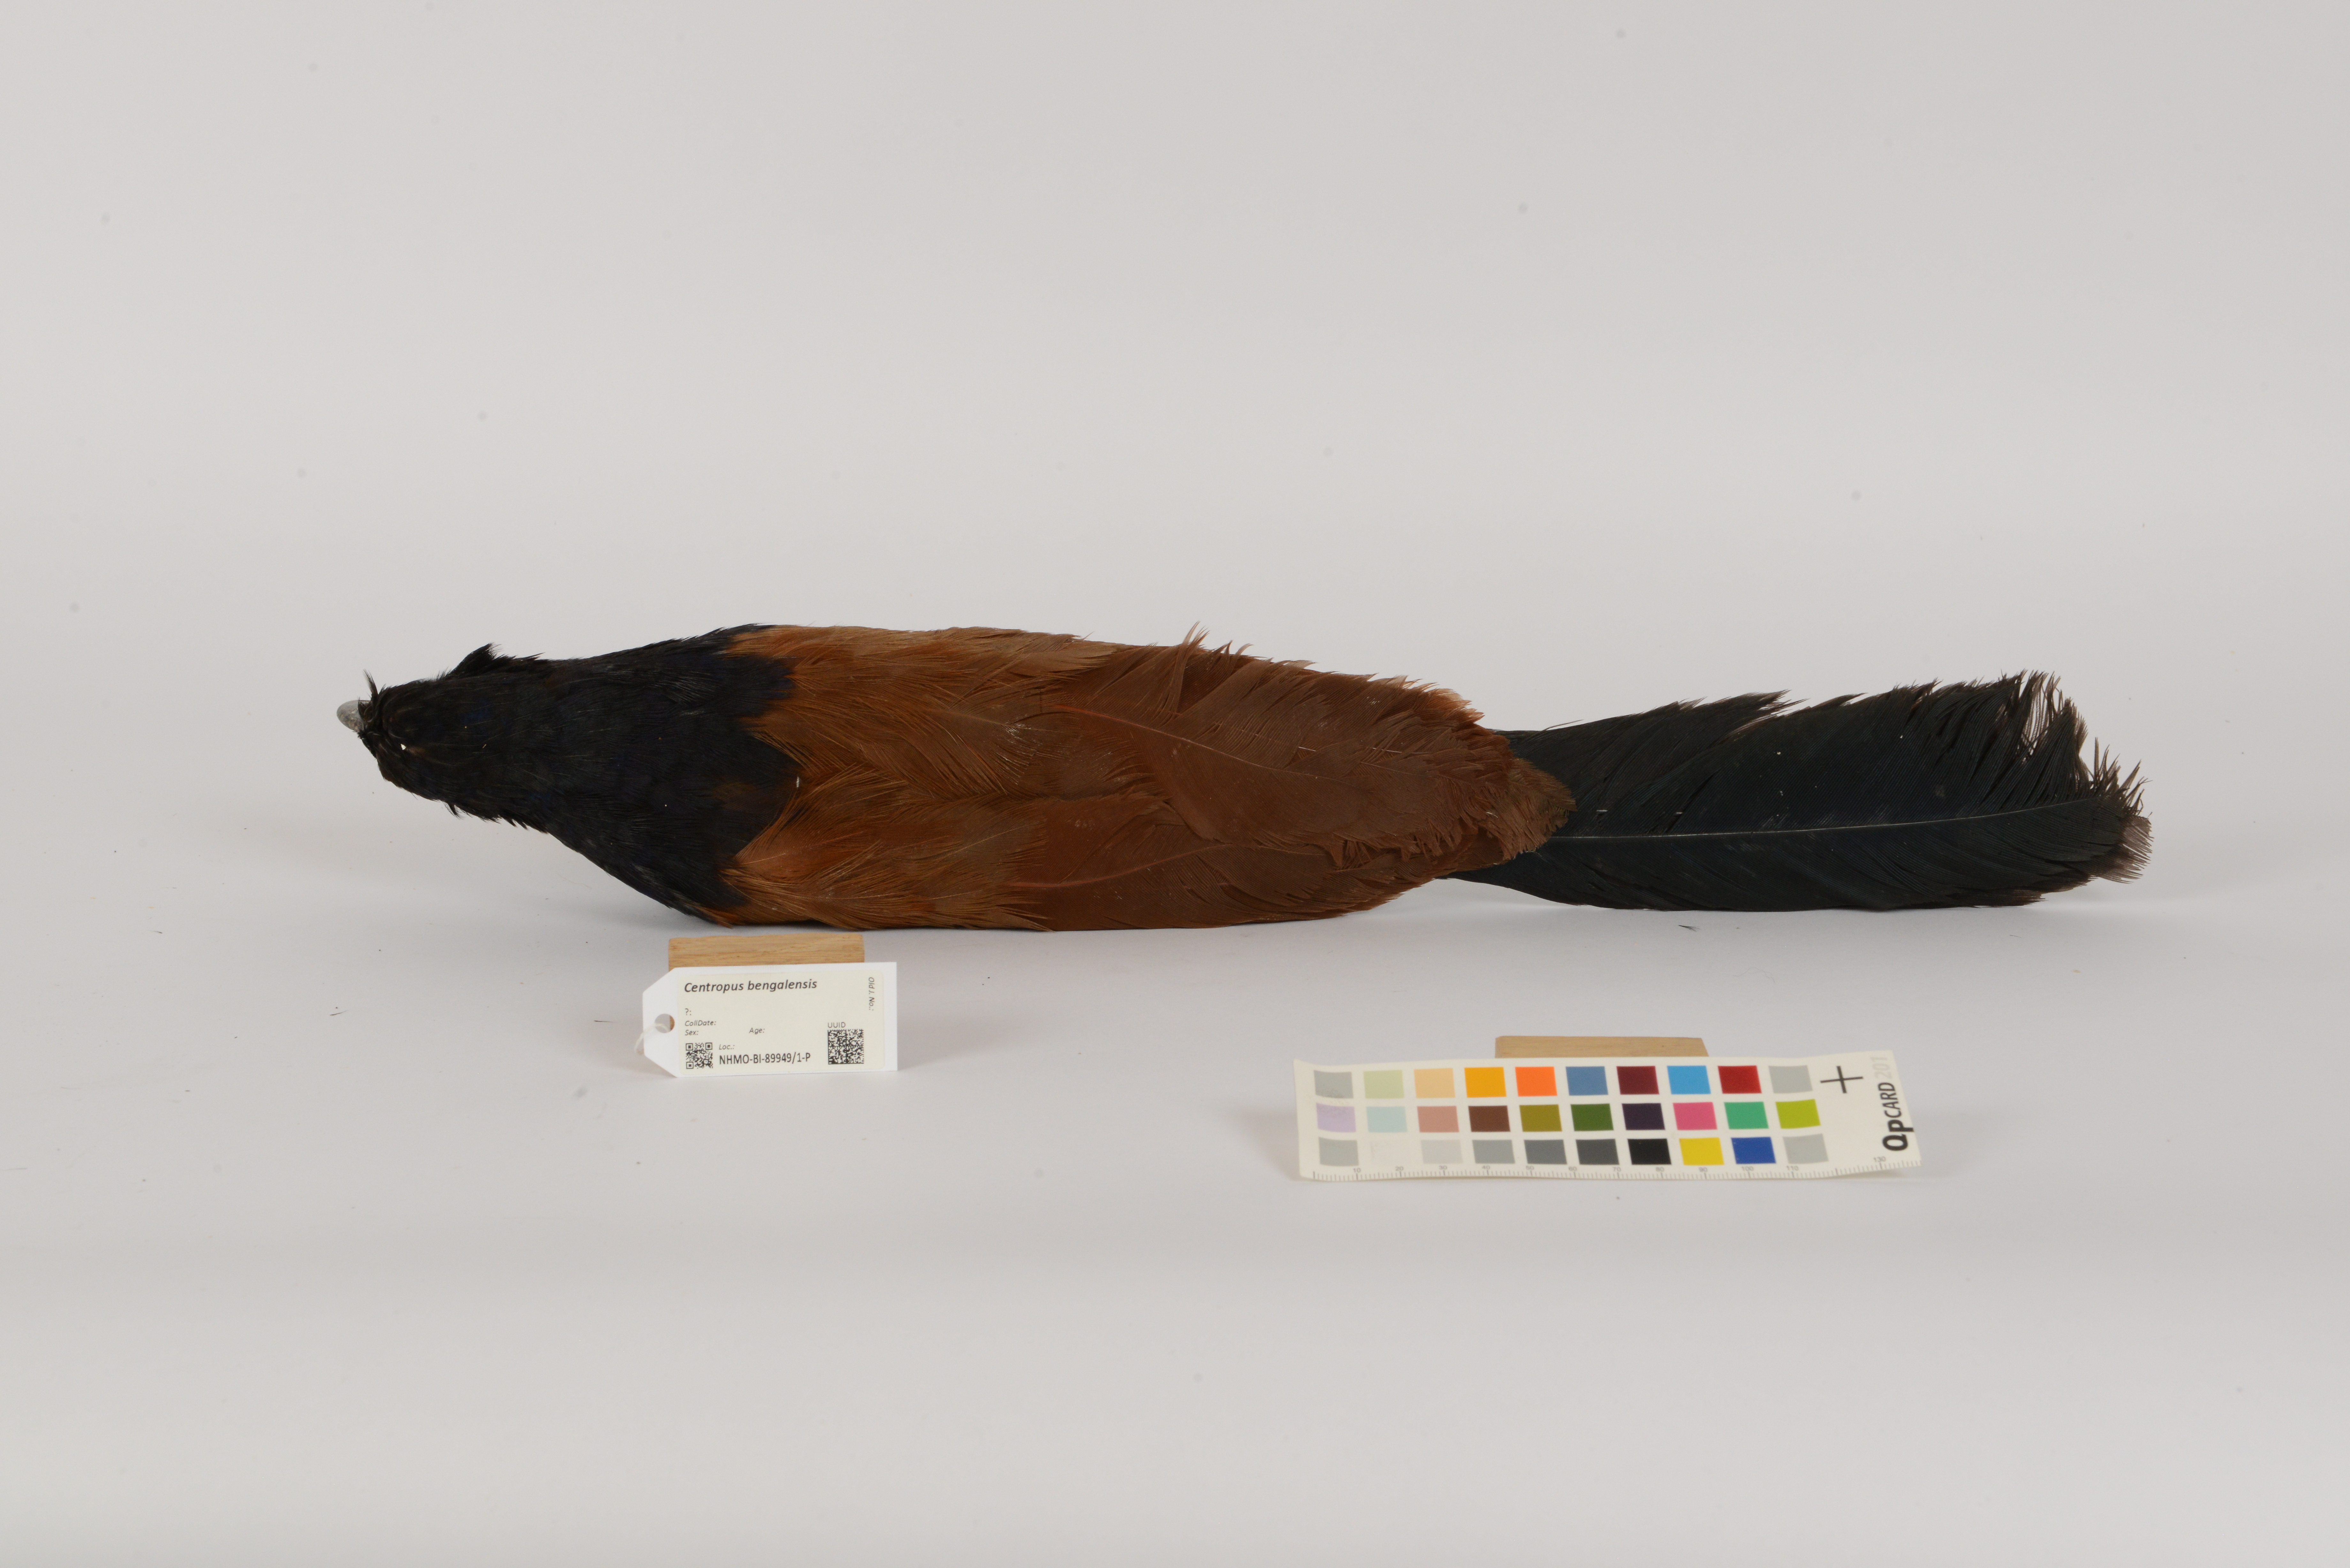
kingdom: Animalia
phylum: Chordata
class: Aves
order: Cuculiformes
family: Cuculidae
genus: Centropus
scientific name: Centropus bengalensis
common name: Lesser coucal
